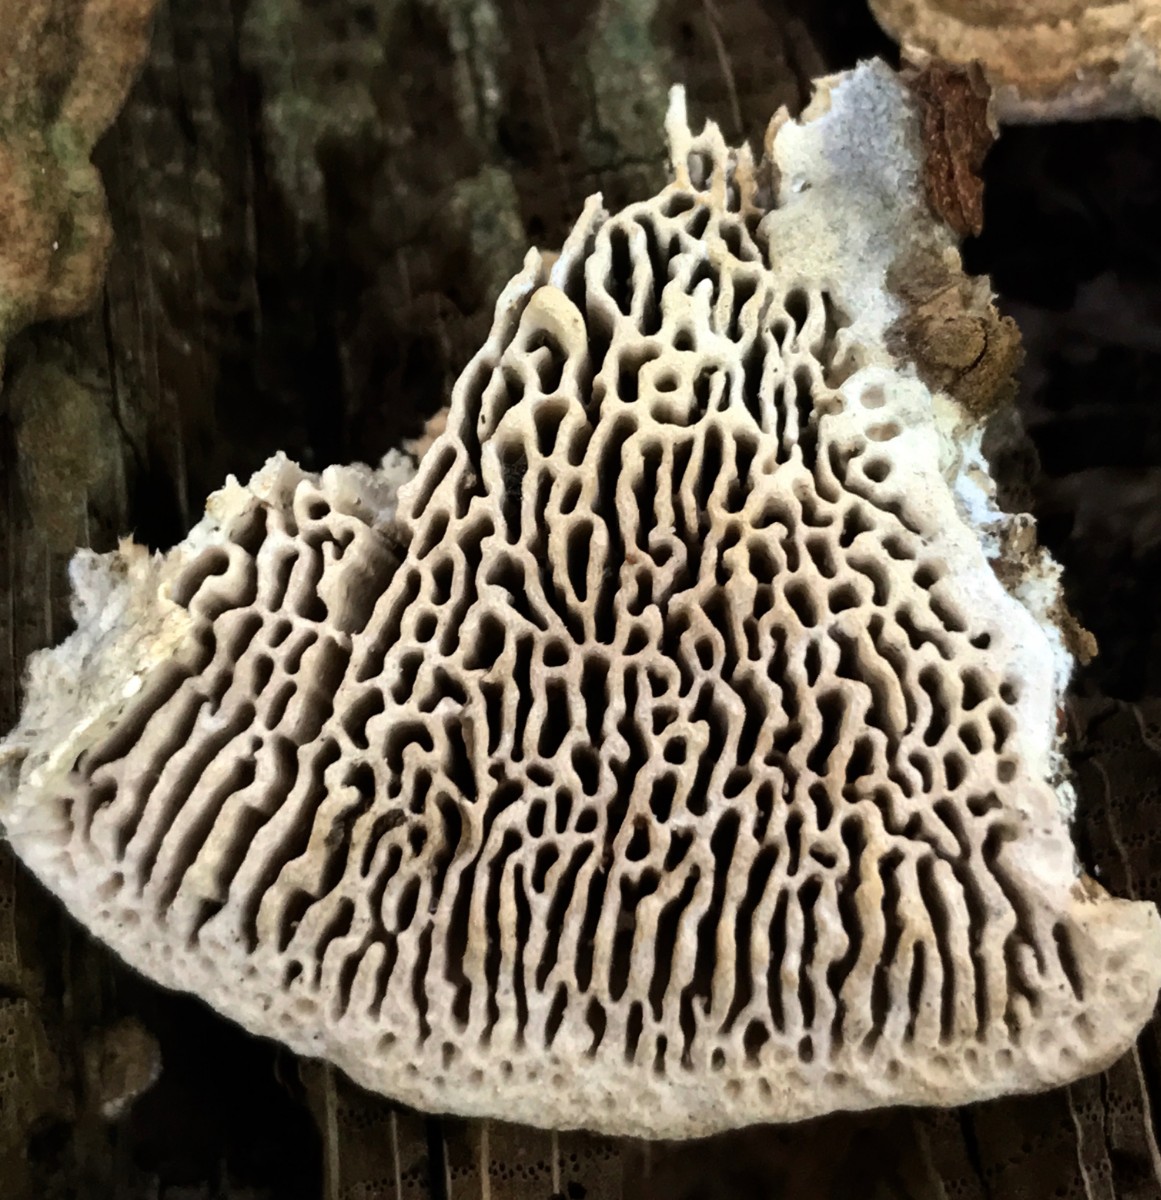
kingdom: Fungi
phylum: Basidiomycota
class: Agaricomycetes
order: Polyporales
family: Fomitopsidaceae
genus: Daedalea
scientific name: Daedalea quercina
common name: ege-labyrintsvamp
